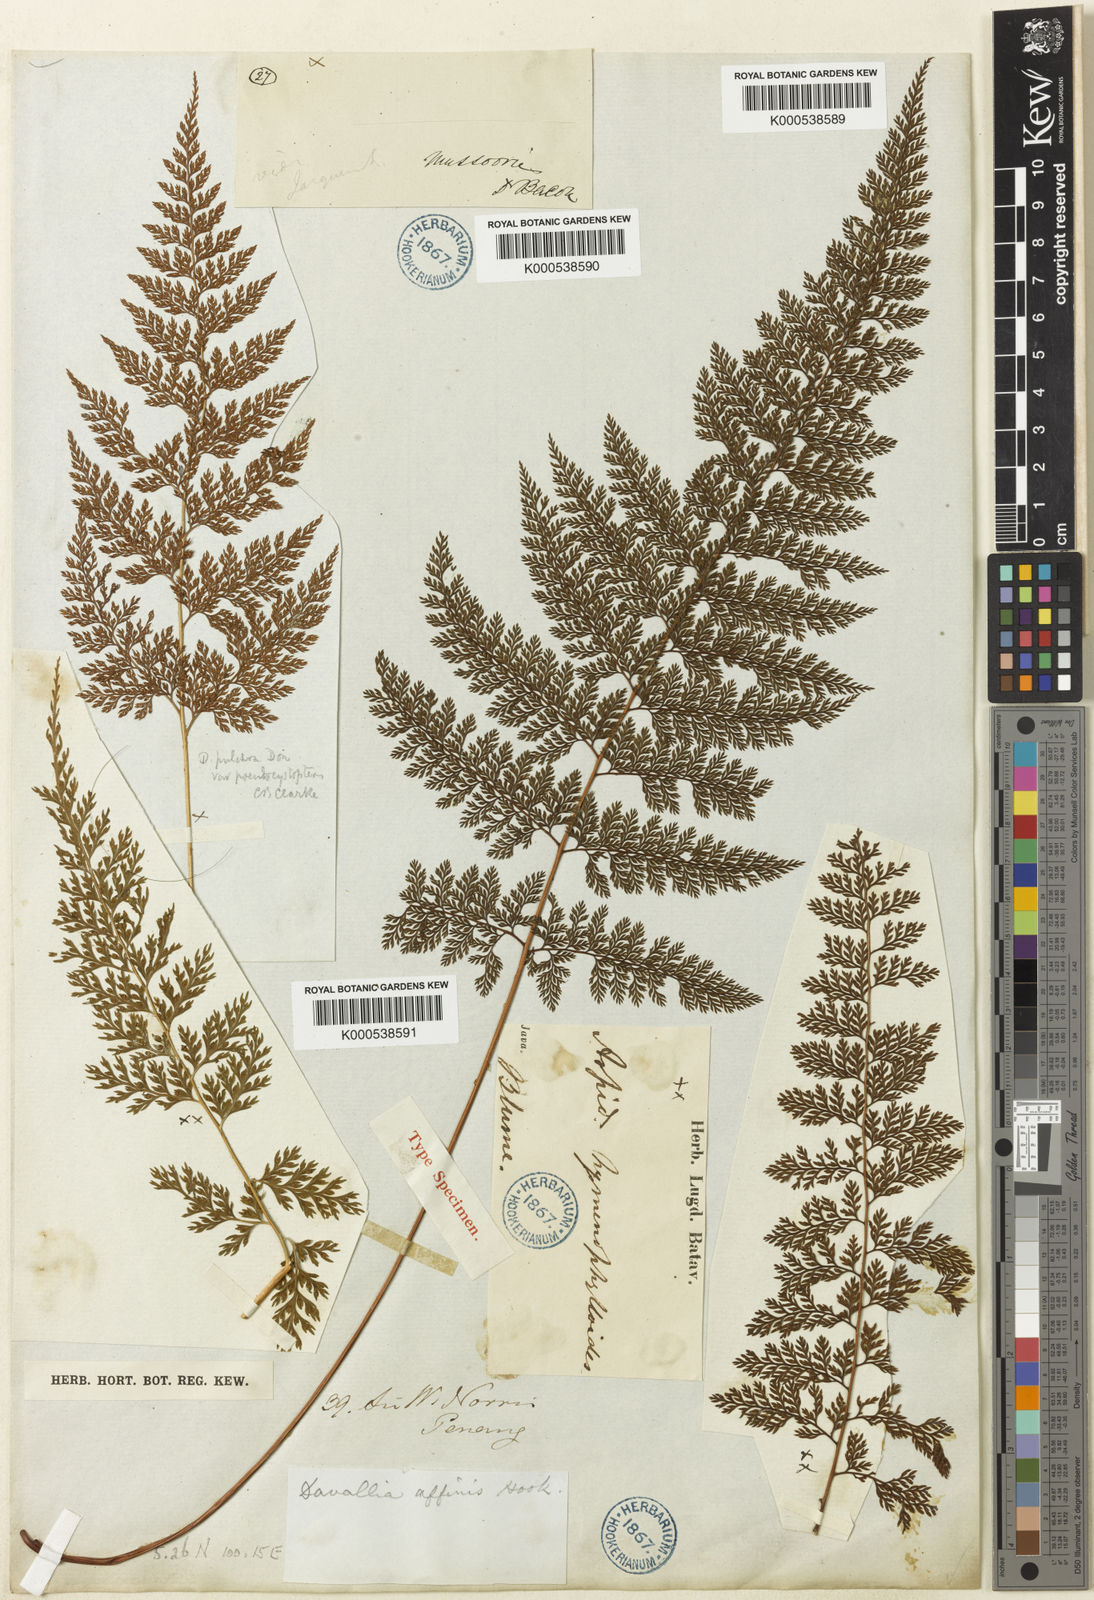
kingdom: Plantae
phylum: Tracheophyta
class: Polypodiopsida
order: Polypodiales
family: Davalliaceae
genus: Davallodes
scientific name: Davallodes hymenophylloides
